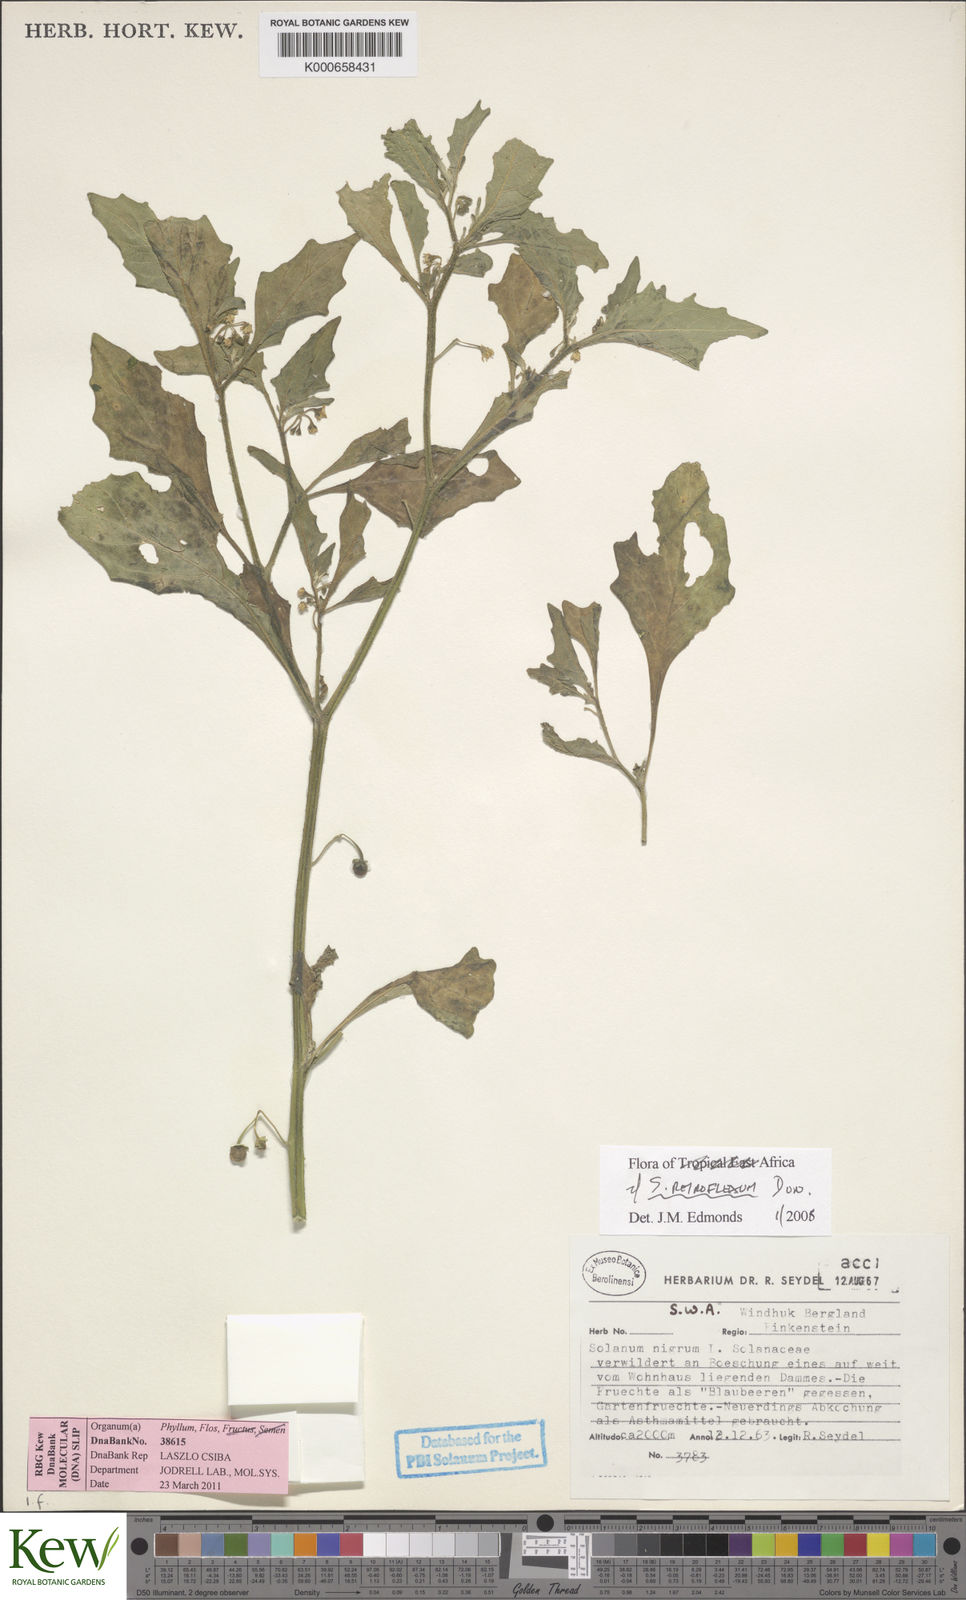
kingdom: Plantae
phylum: Tracheophyta
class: Magnoliopsida
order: Solanales
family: Solanaceae
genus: Solanum
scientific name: Solanum retroflexum
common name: Wonderberry
